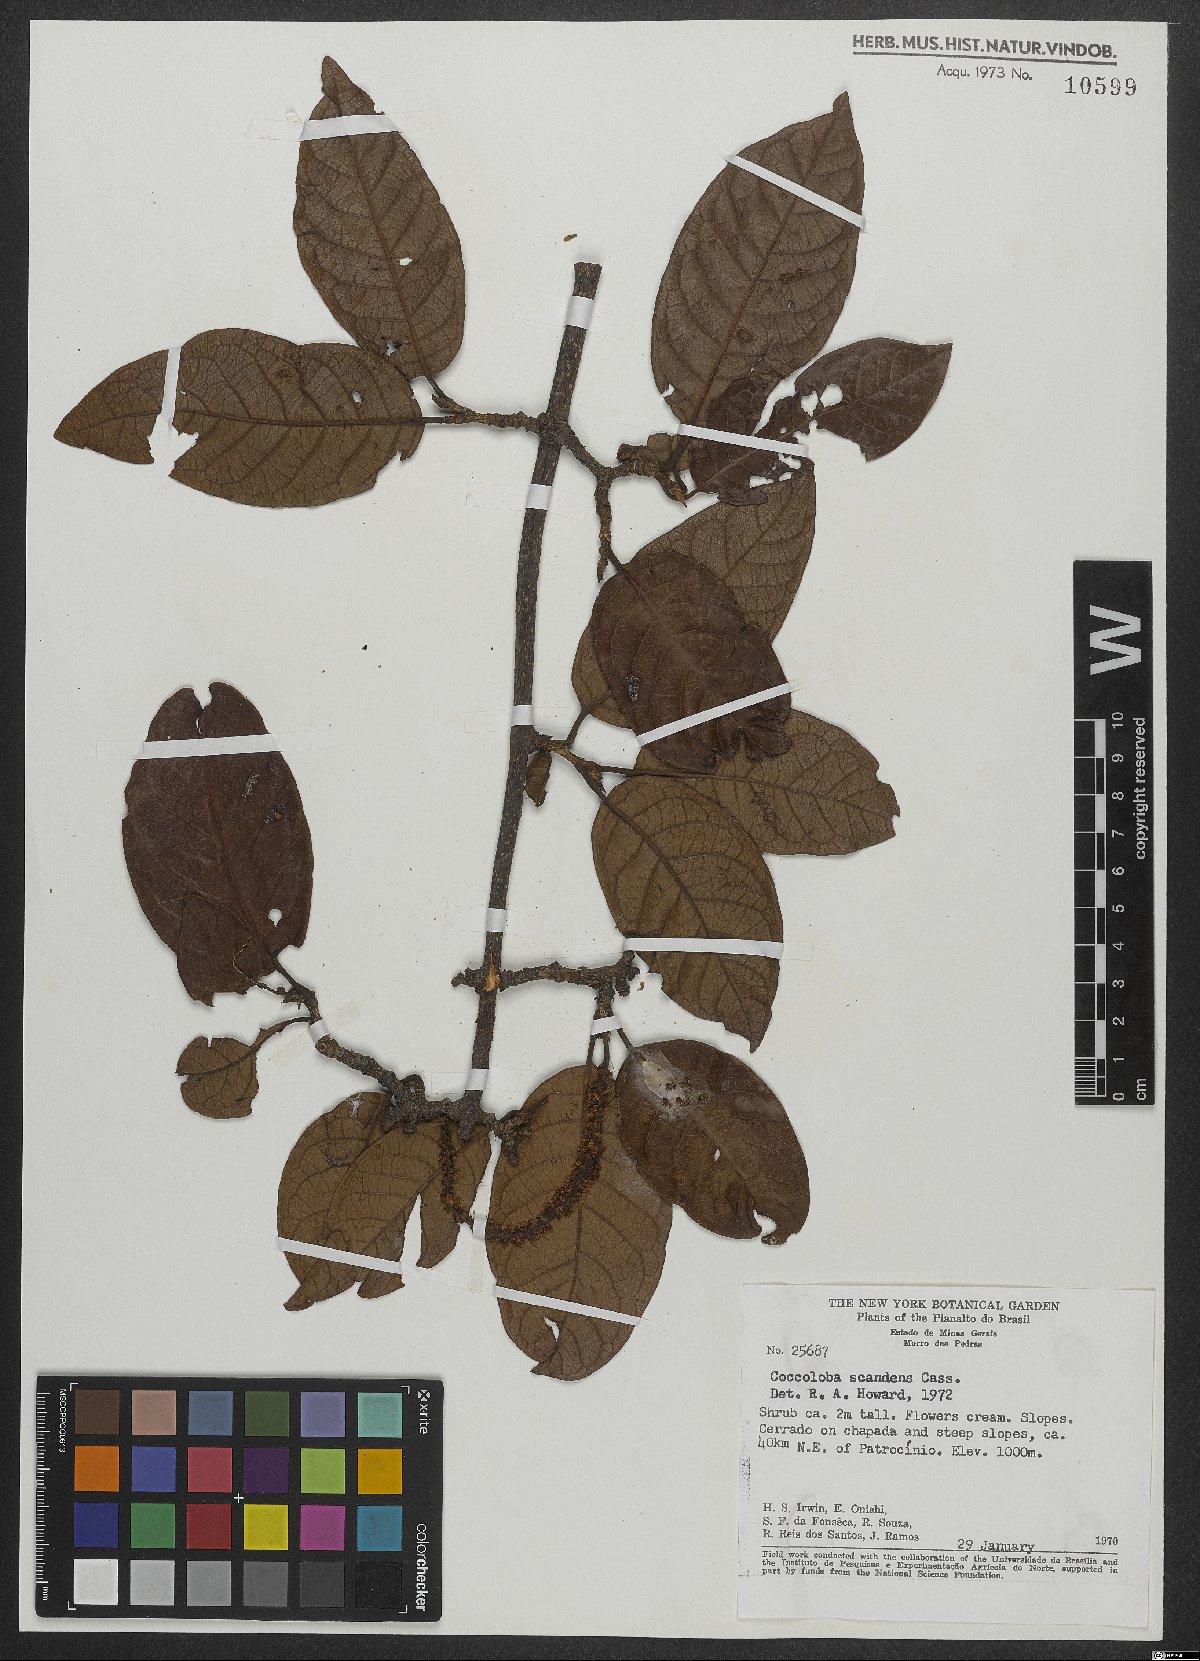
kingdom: Plantae
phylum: Tracheophyta
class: Magnoliopsida
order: Caryophyllales
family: Polygonaceae
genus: Coccoloba
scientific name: Coccoloba scandens
